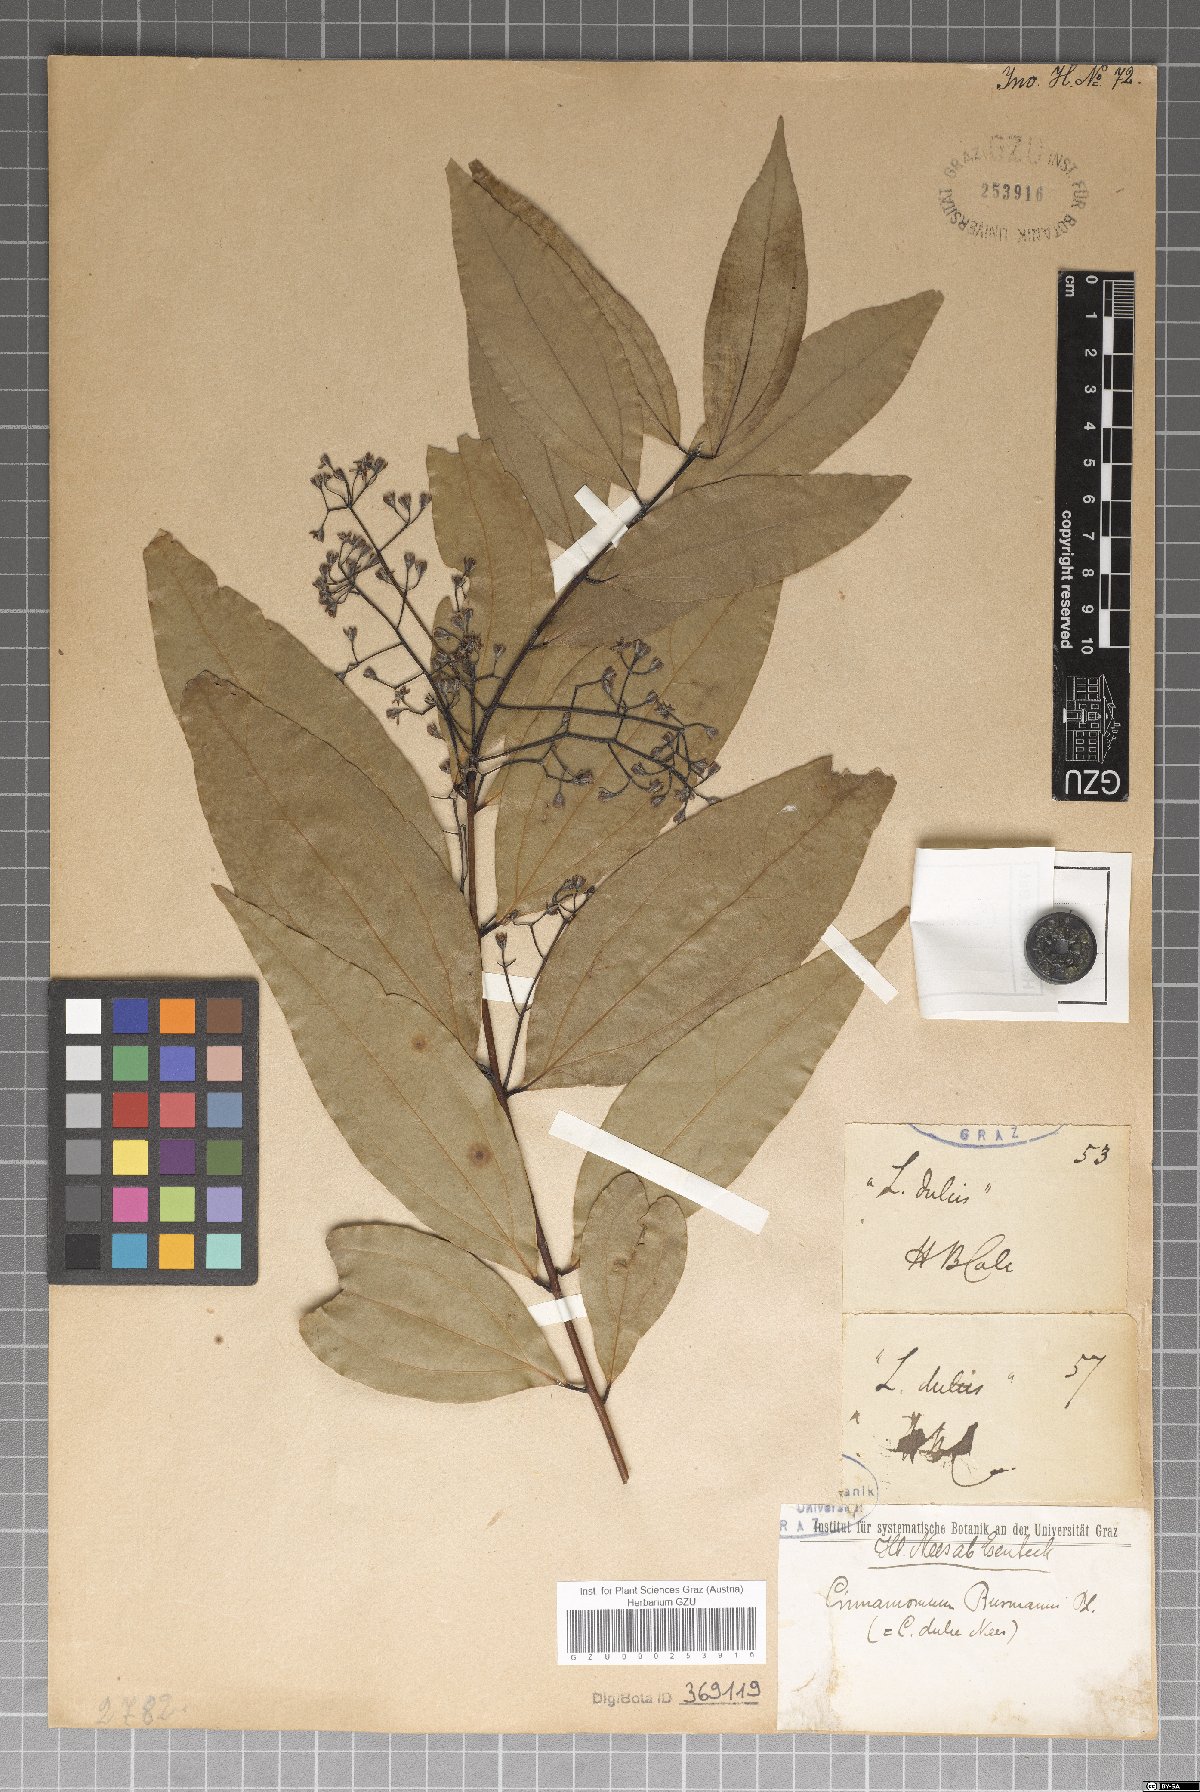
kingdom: Plantae
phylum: Tracheophyta
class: Magnoliopsida
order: Laurales
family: Lauraceae
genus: Cinnamomum
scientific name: Cinnamomum burmanni
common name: Padang cassia
